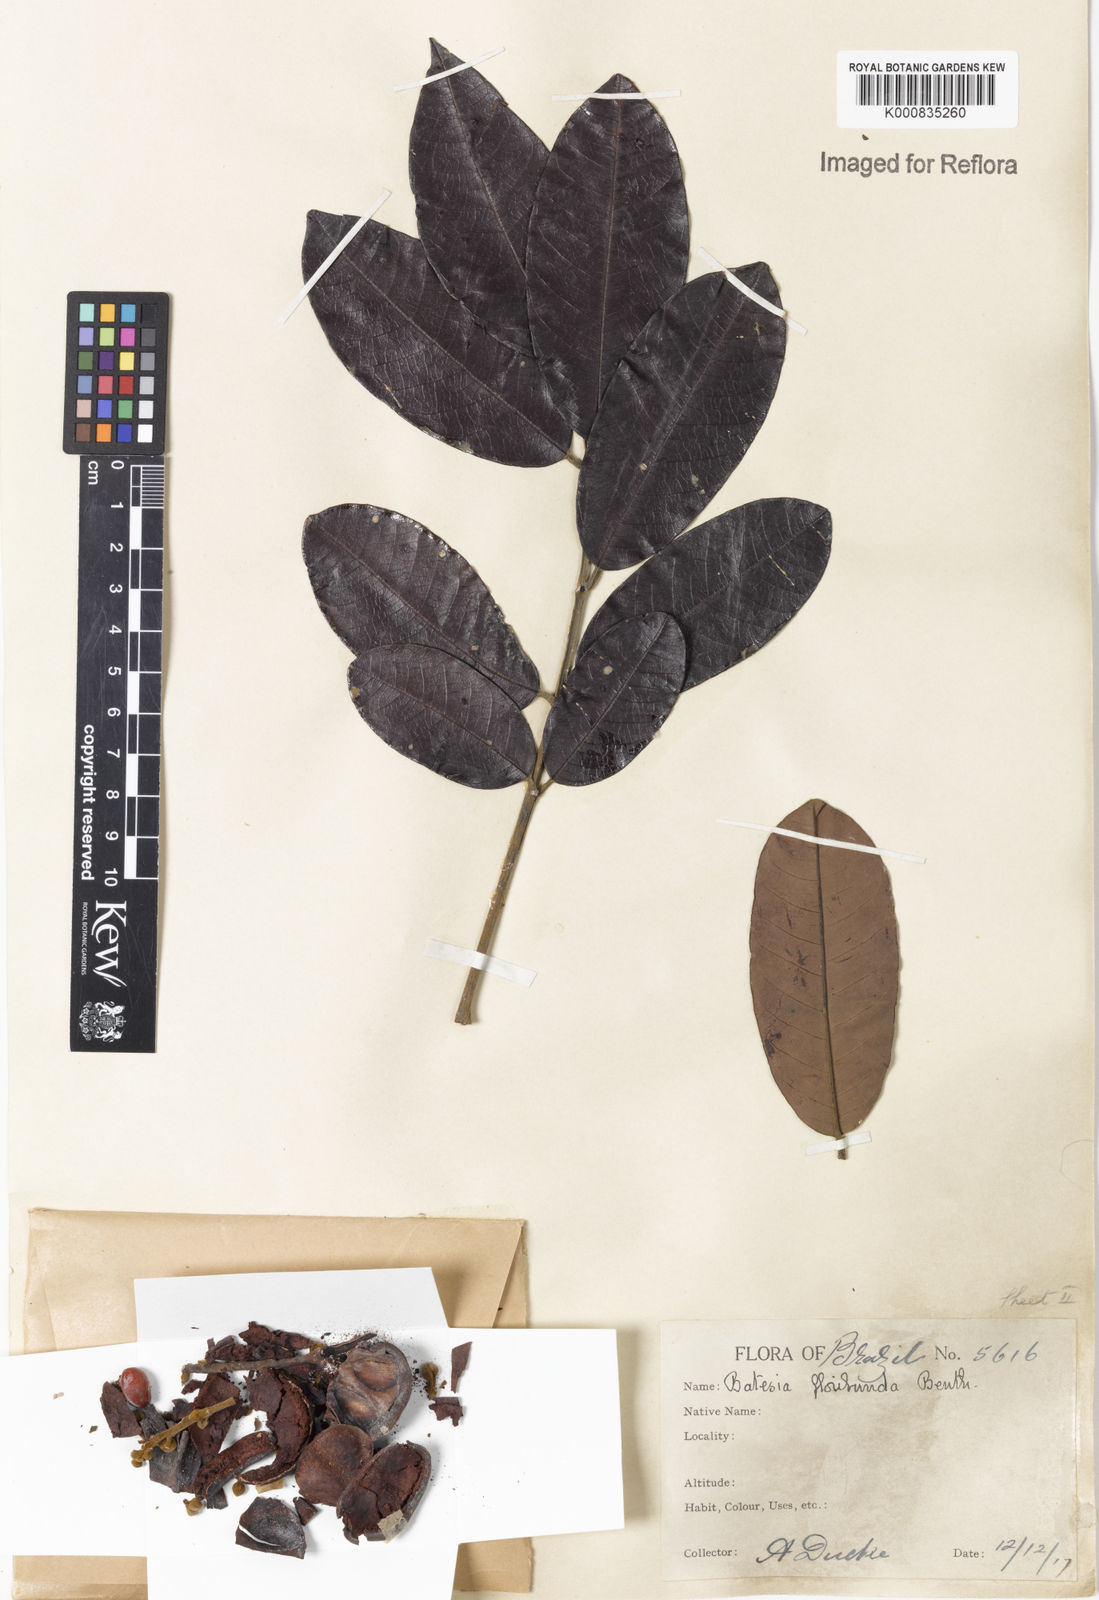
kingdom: Plantae
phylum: Tracheophyta
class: Magnoliopsida
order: Fabales
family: Fabaceae
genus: Batesia
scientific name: Batesia floribunda
